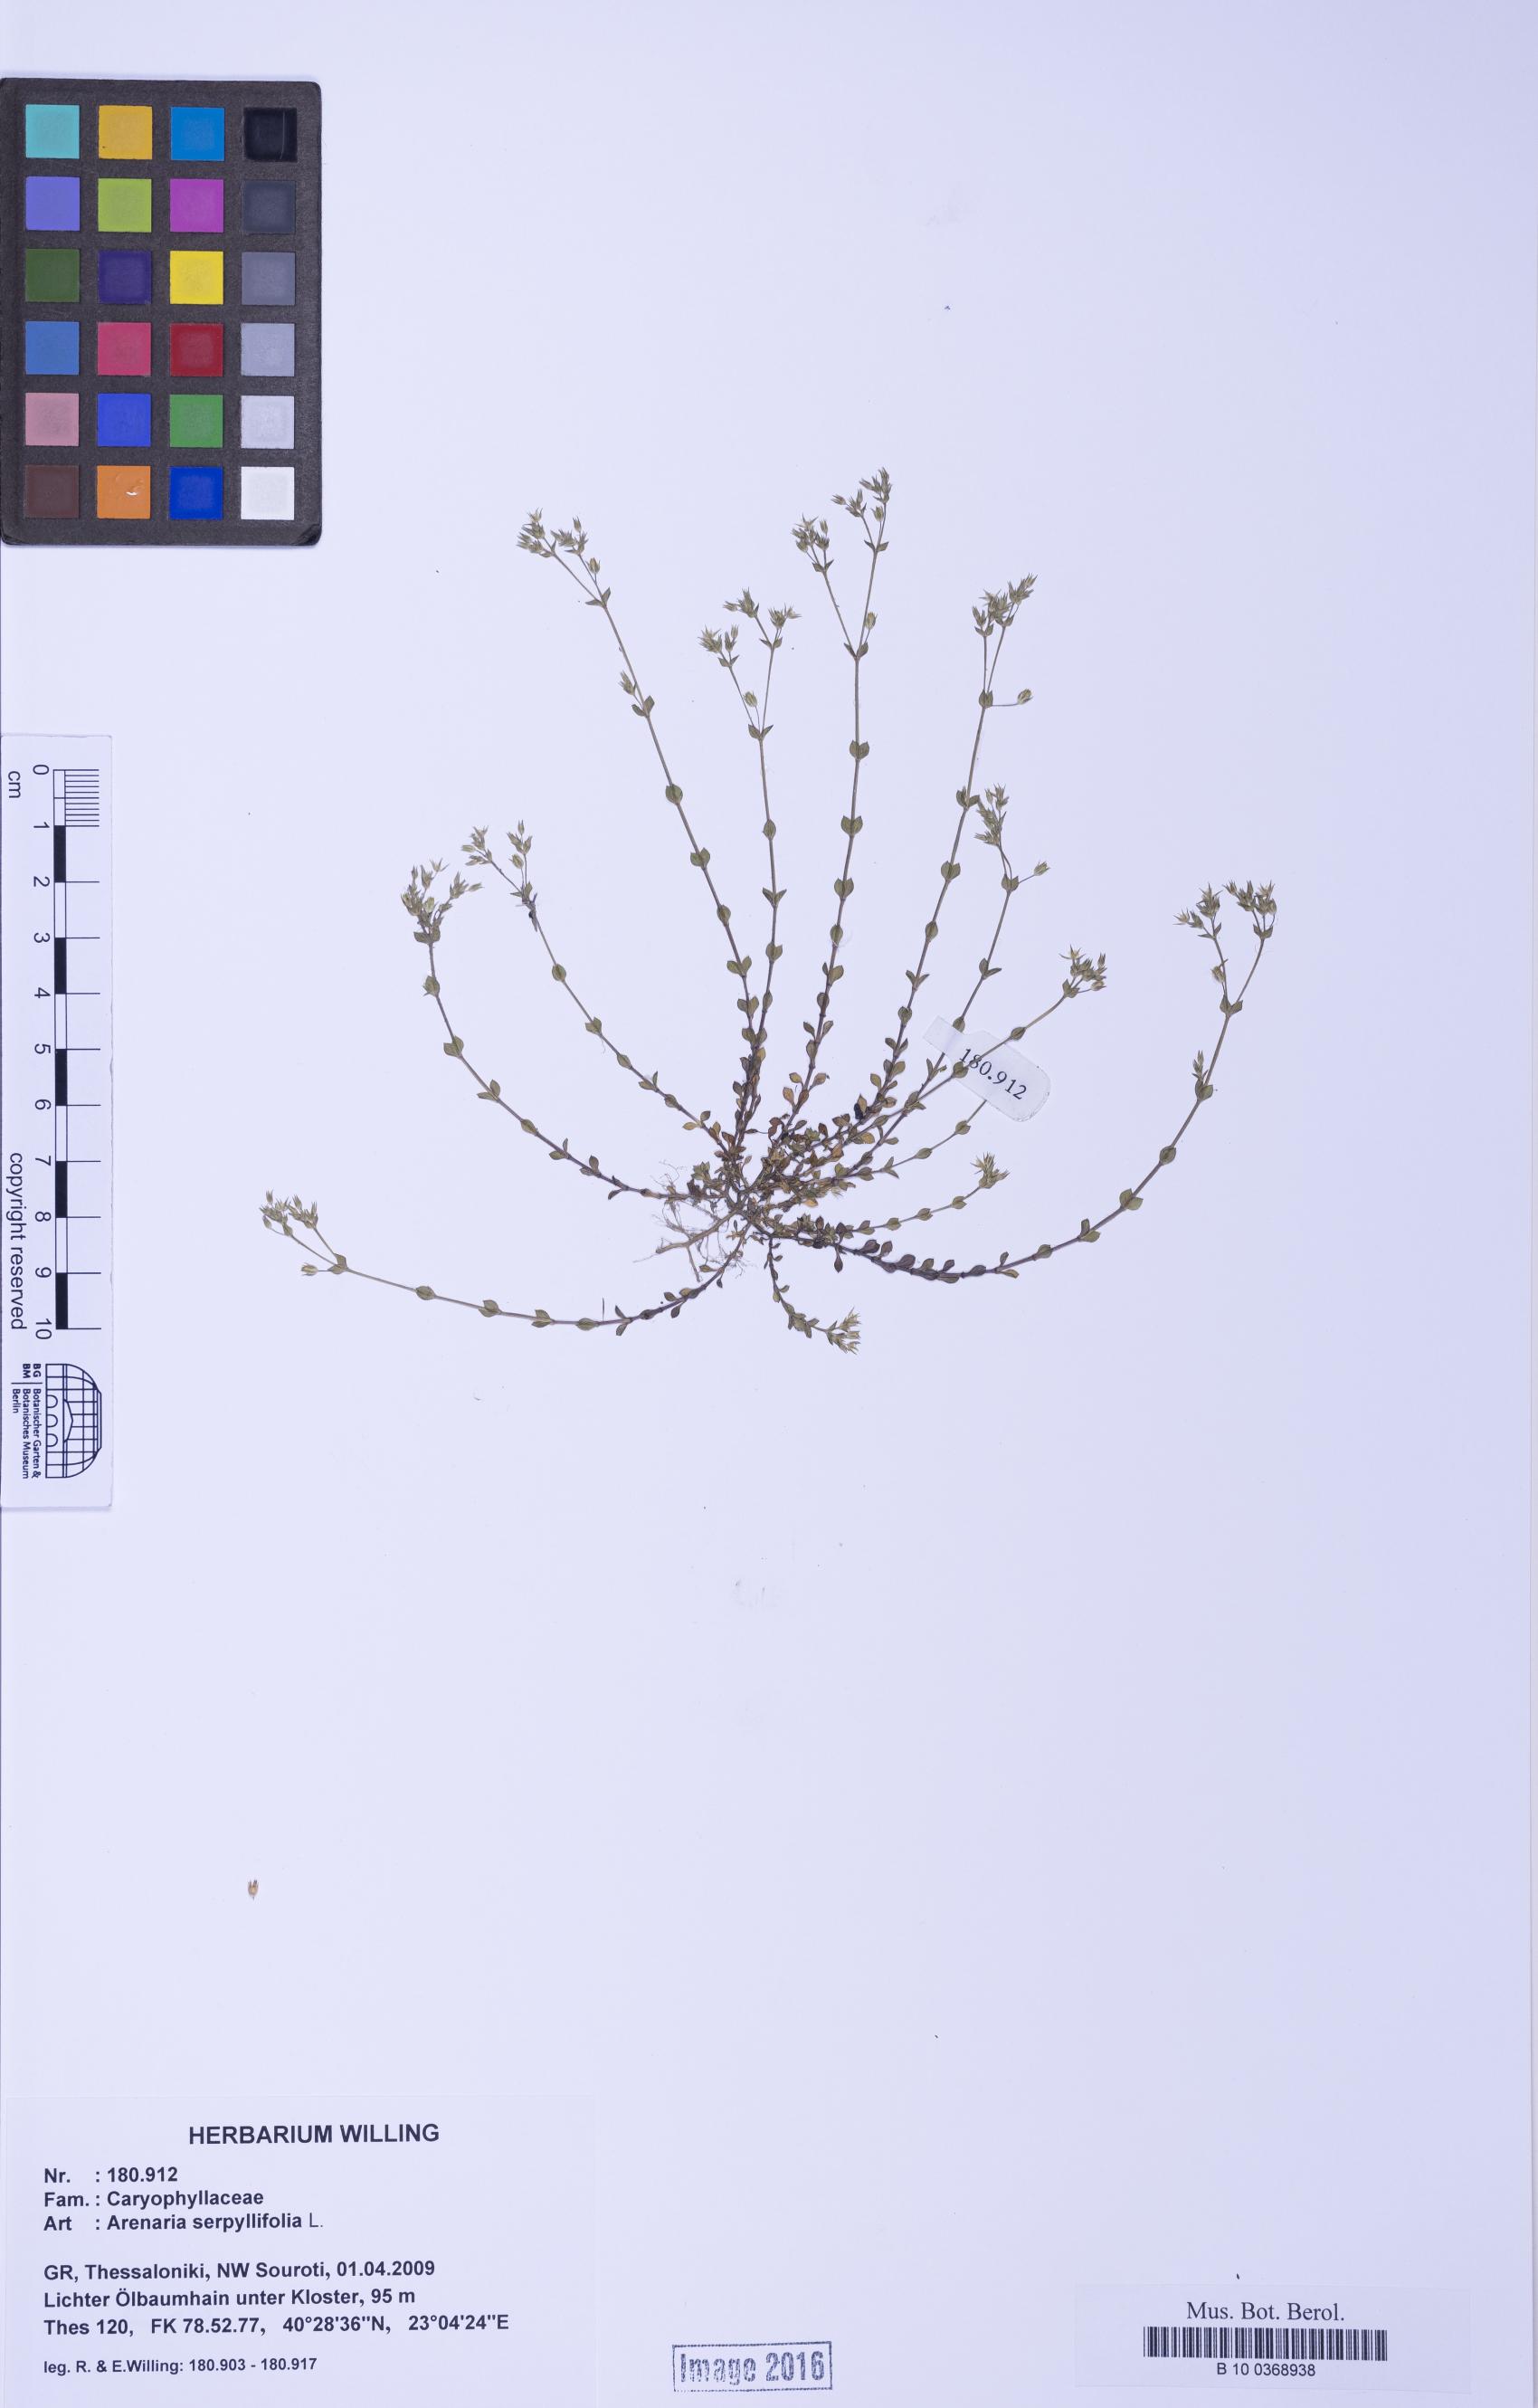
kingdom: Plantae
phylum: Tracheophyta
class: Magnoliopsida
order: Caryophyllales
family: Caryophyllaceae
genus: Arenaria
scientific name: Arenaria serpyllifolia
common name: Thyme-leaved sandwort
